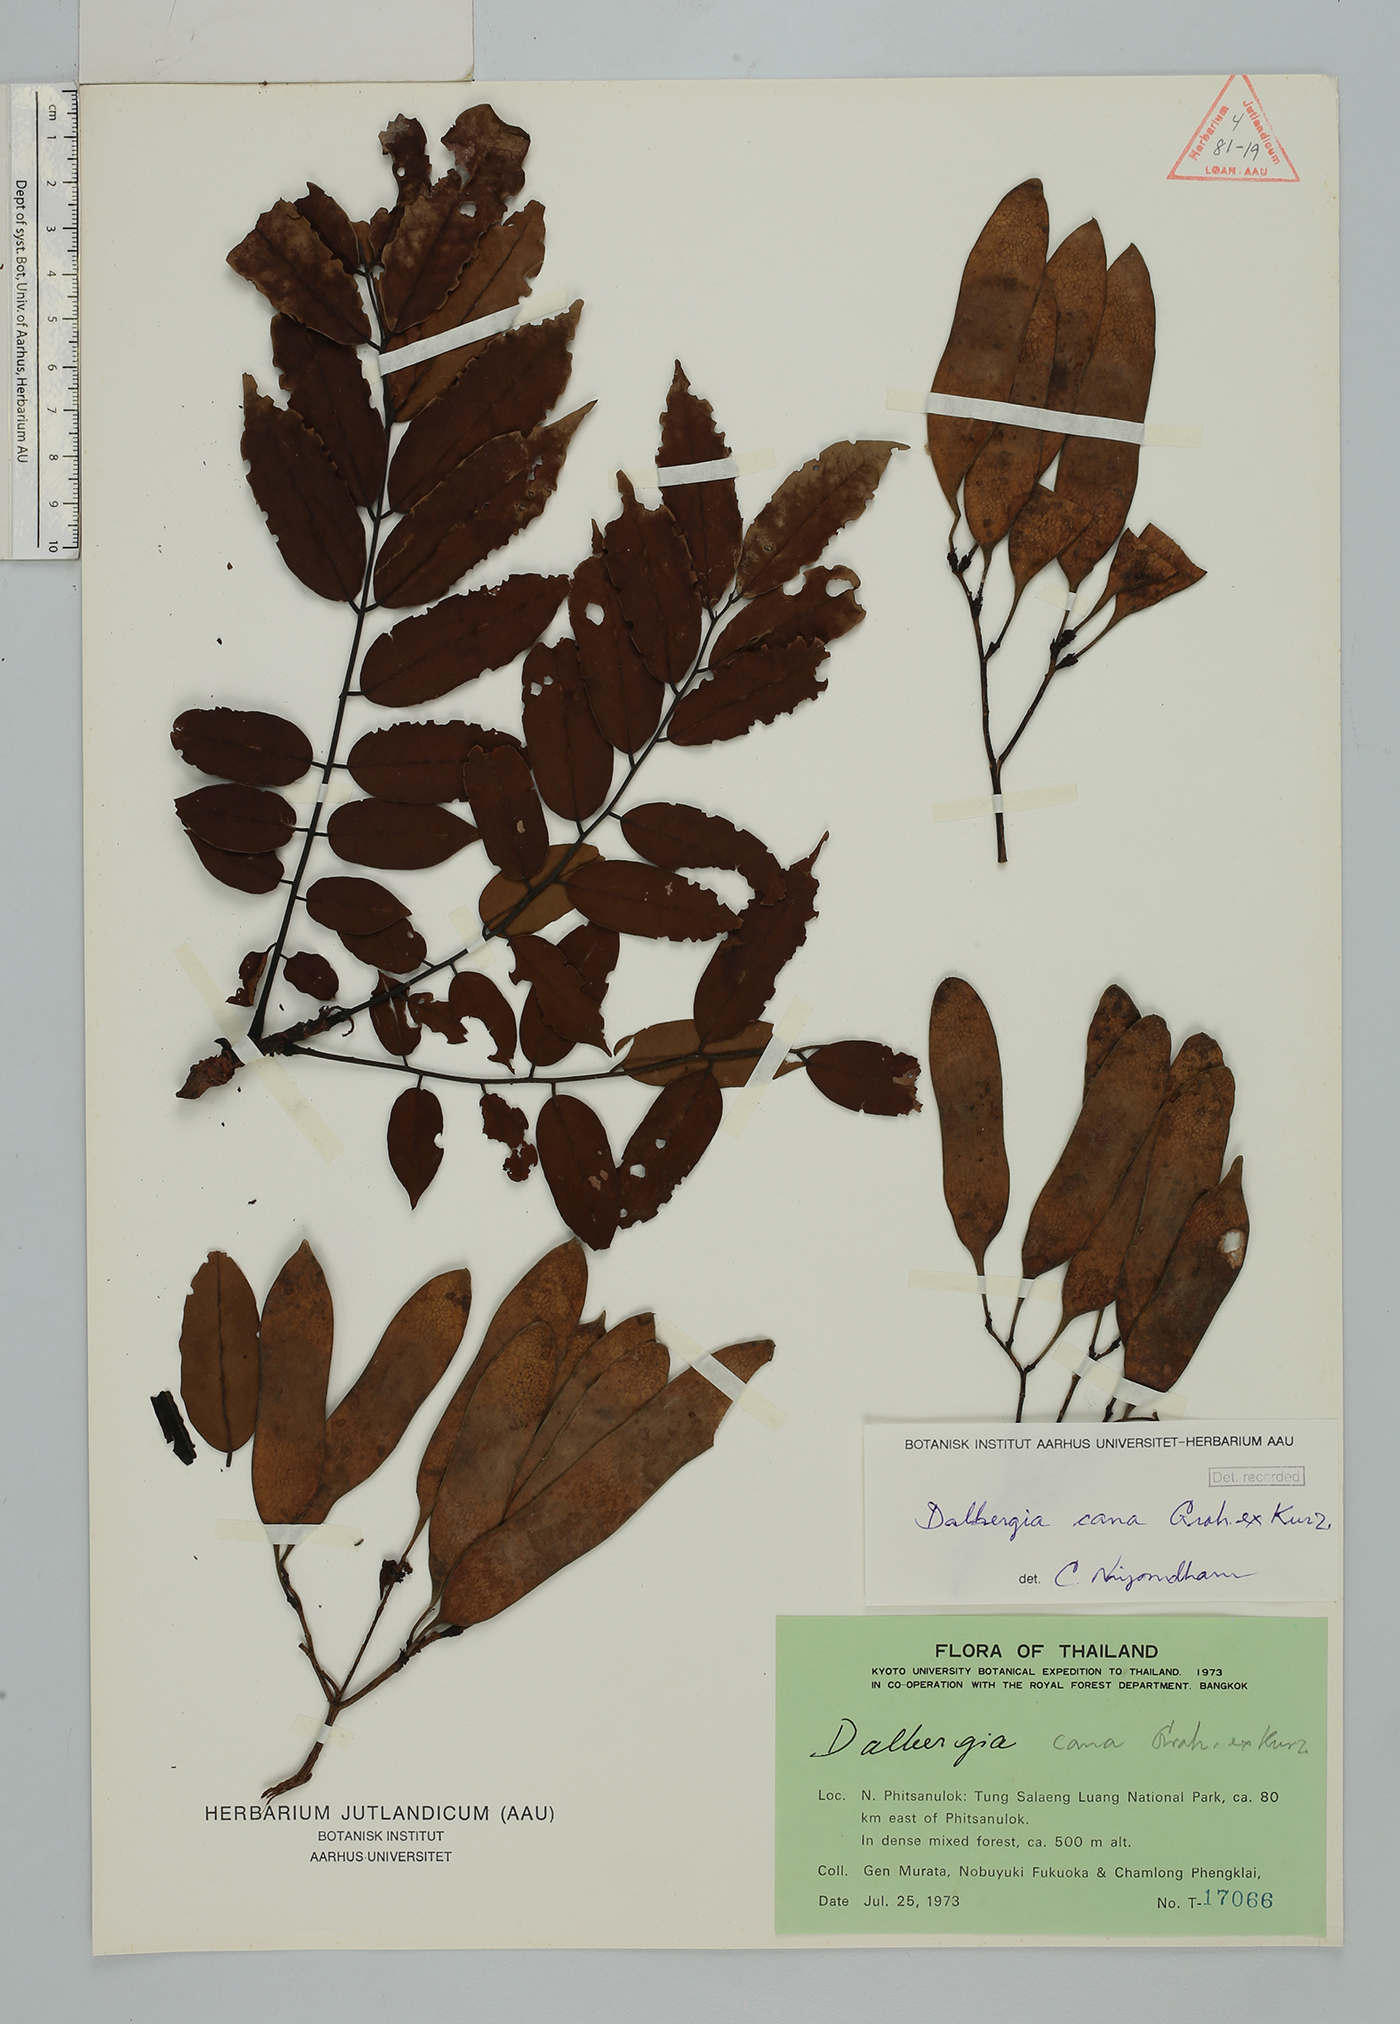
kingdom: Plantae
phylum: Tracheophyta
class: Magnoliopsida
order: Fabales
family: Fabaceae
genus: Dalbergia
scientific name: Dalbergia cana
